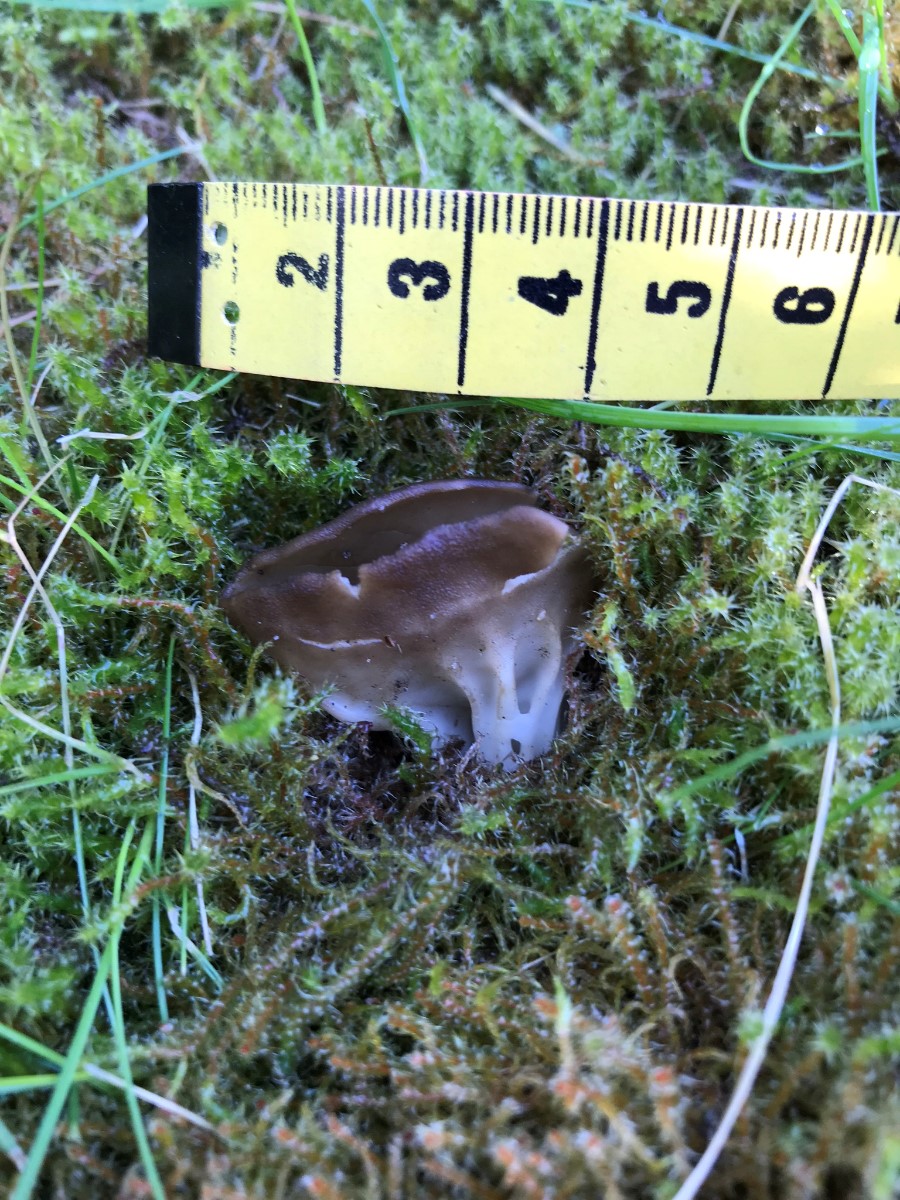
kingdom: Fungi
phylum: Ascomycota
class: Pezizomycetes
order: Pezizales
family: Helvellaceae
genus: Helvella
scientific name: Helvella acetabulum
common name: pokal-foldhat
